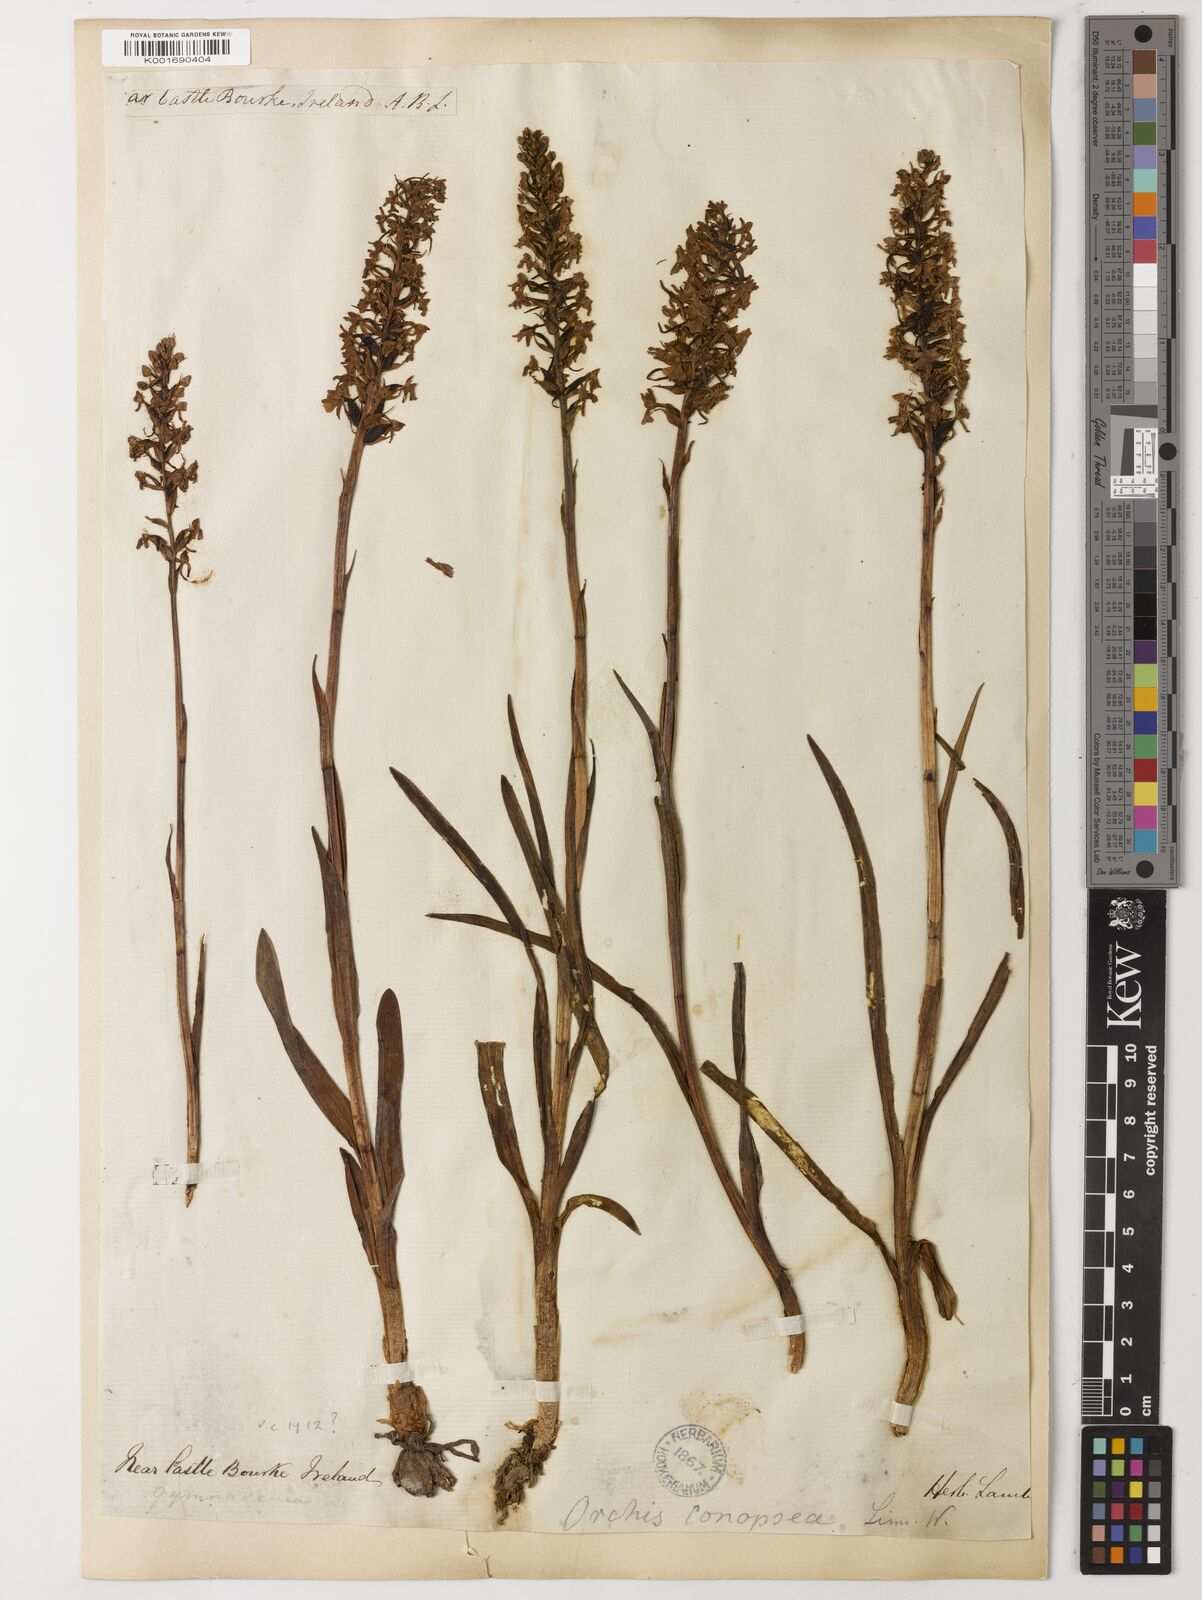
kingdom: Plantae
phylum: Tracheophyta
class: Magnoliopsida
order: Fabales
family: Fabaceae
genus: Bracteolaria
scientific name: Bracteolaria racemosa
